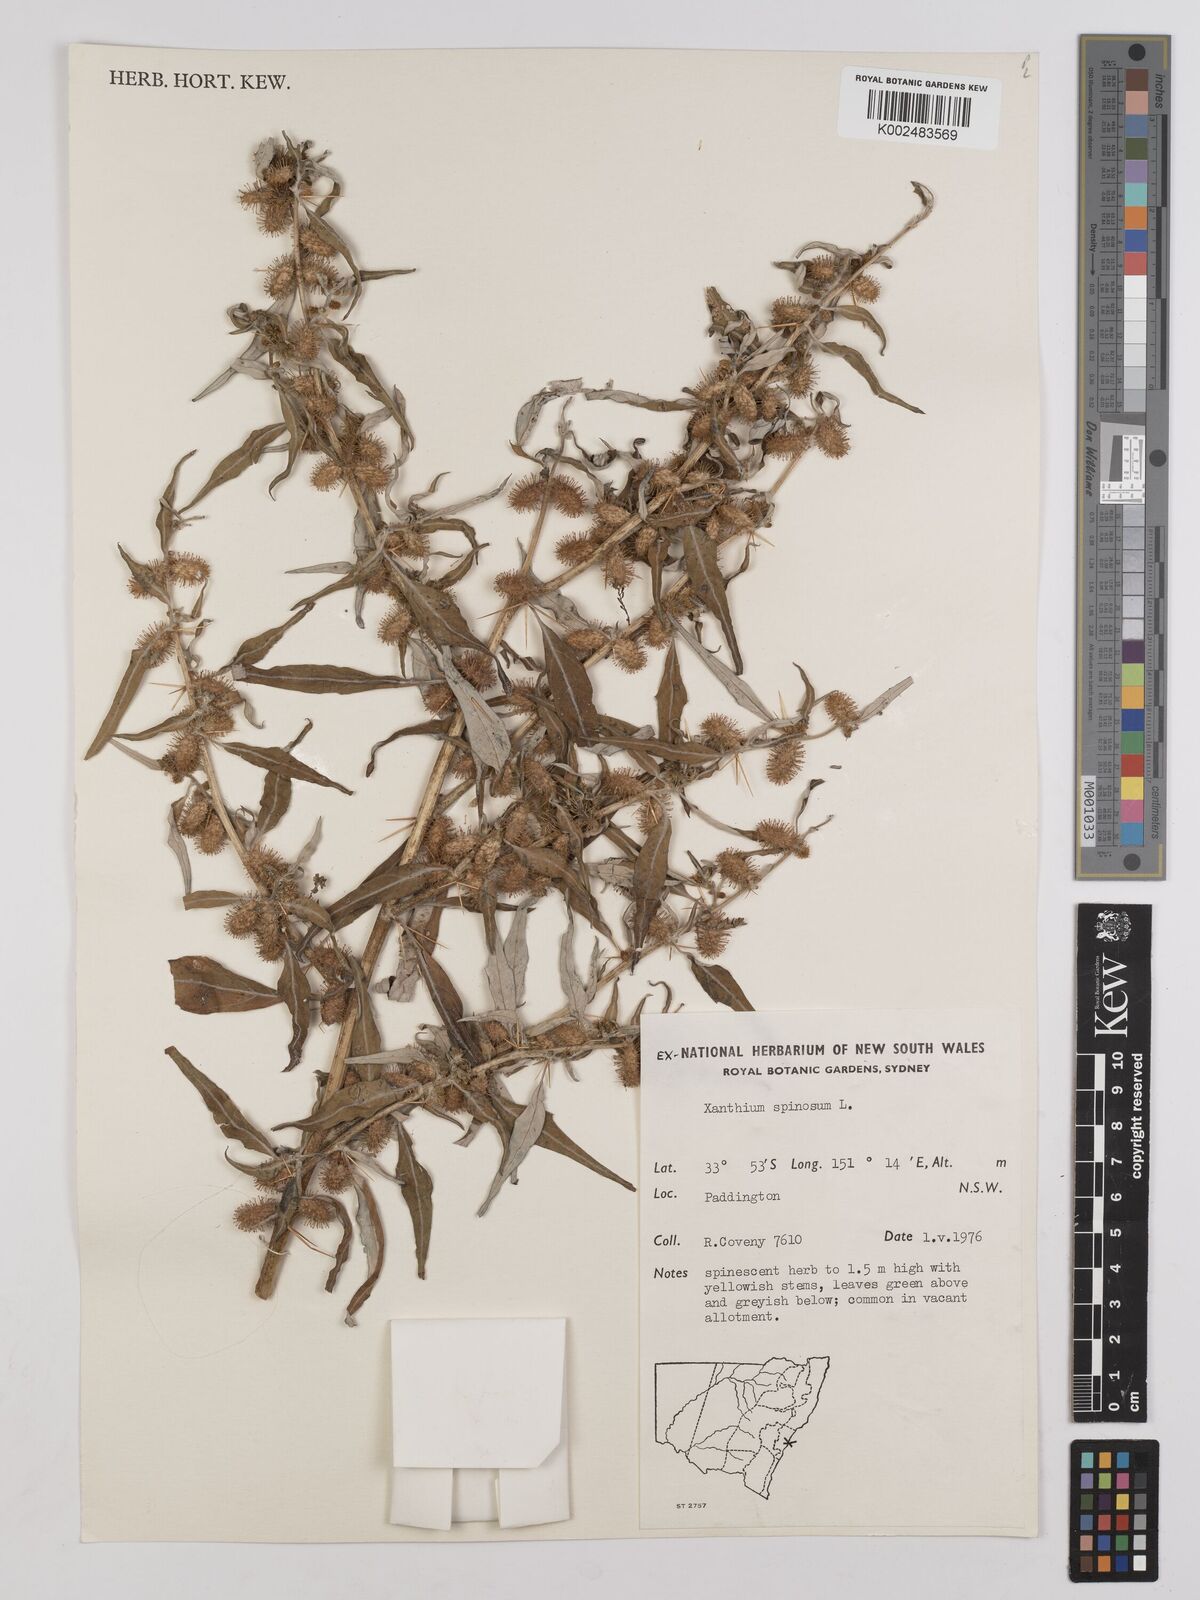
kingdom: Plantae
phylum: Tracheophyta
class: Magnoliopsida
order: Asterales
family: Asteraceae
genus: Xanthium
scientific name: Xanthium spinosum
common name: Spiny cocklebur
